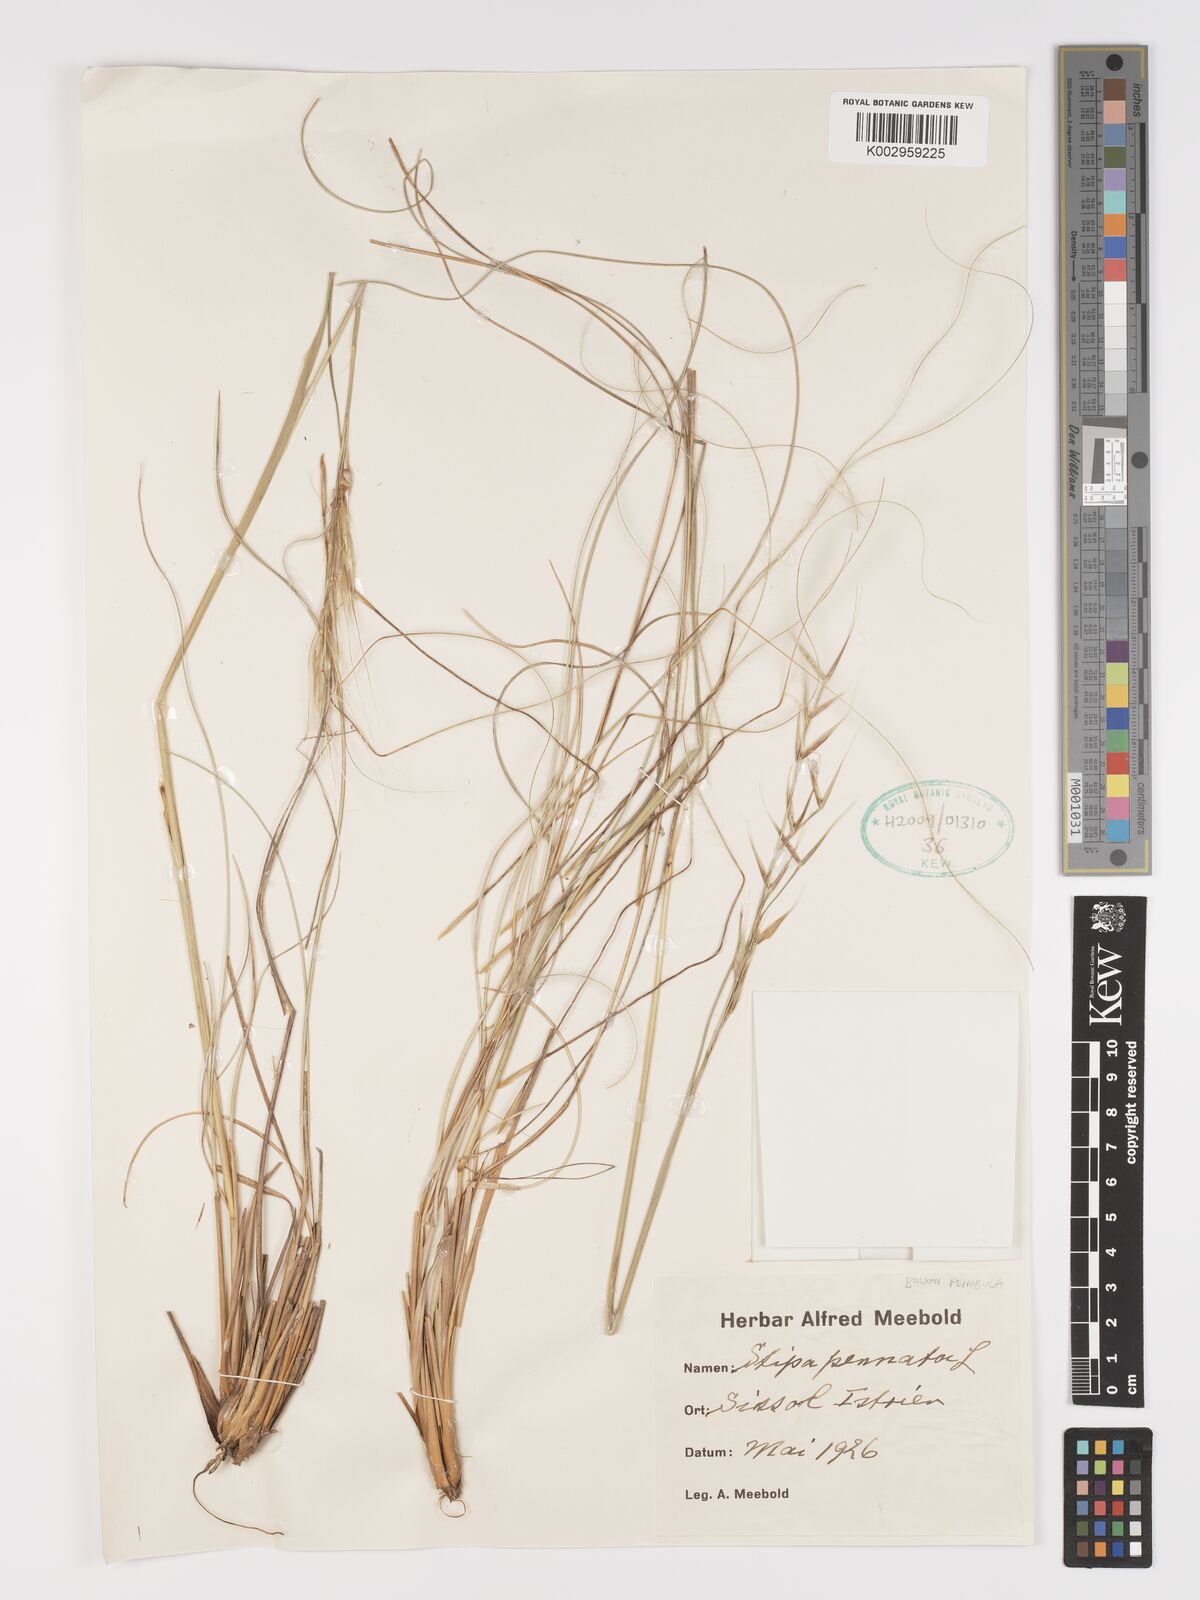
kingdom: Plantae
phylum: Tracheophyta
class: Liliopsida
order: Poales
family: Poaceae
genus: Stipa
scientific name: Stipa pennata
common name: European feather grass
